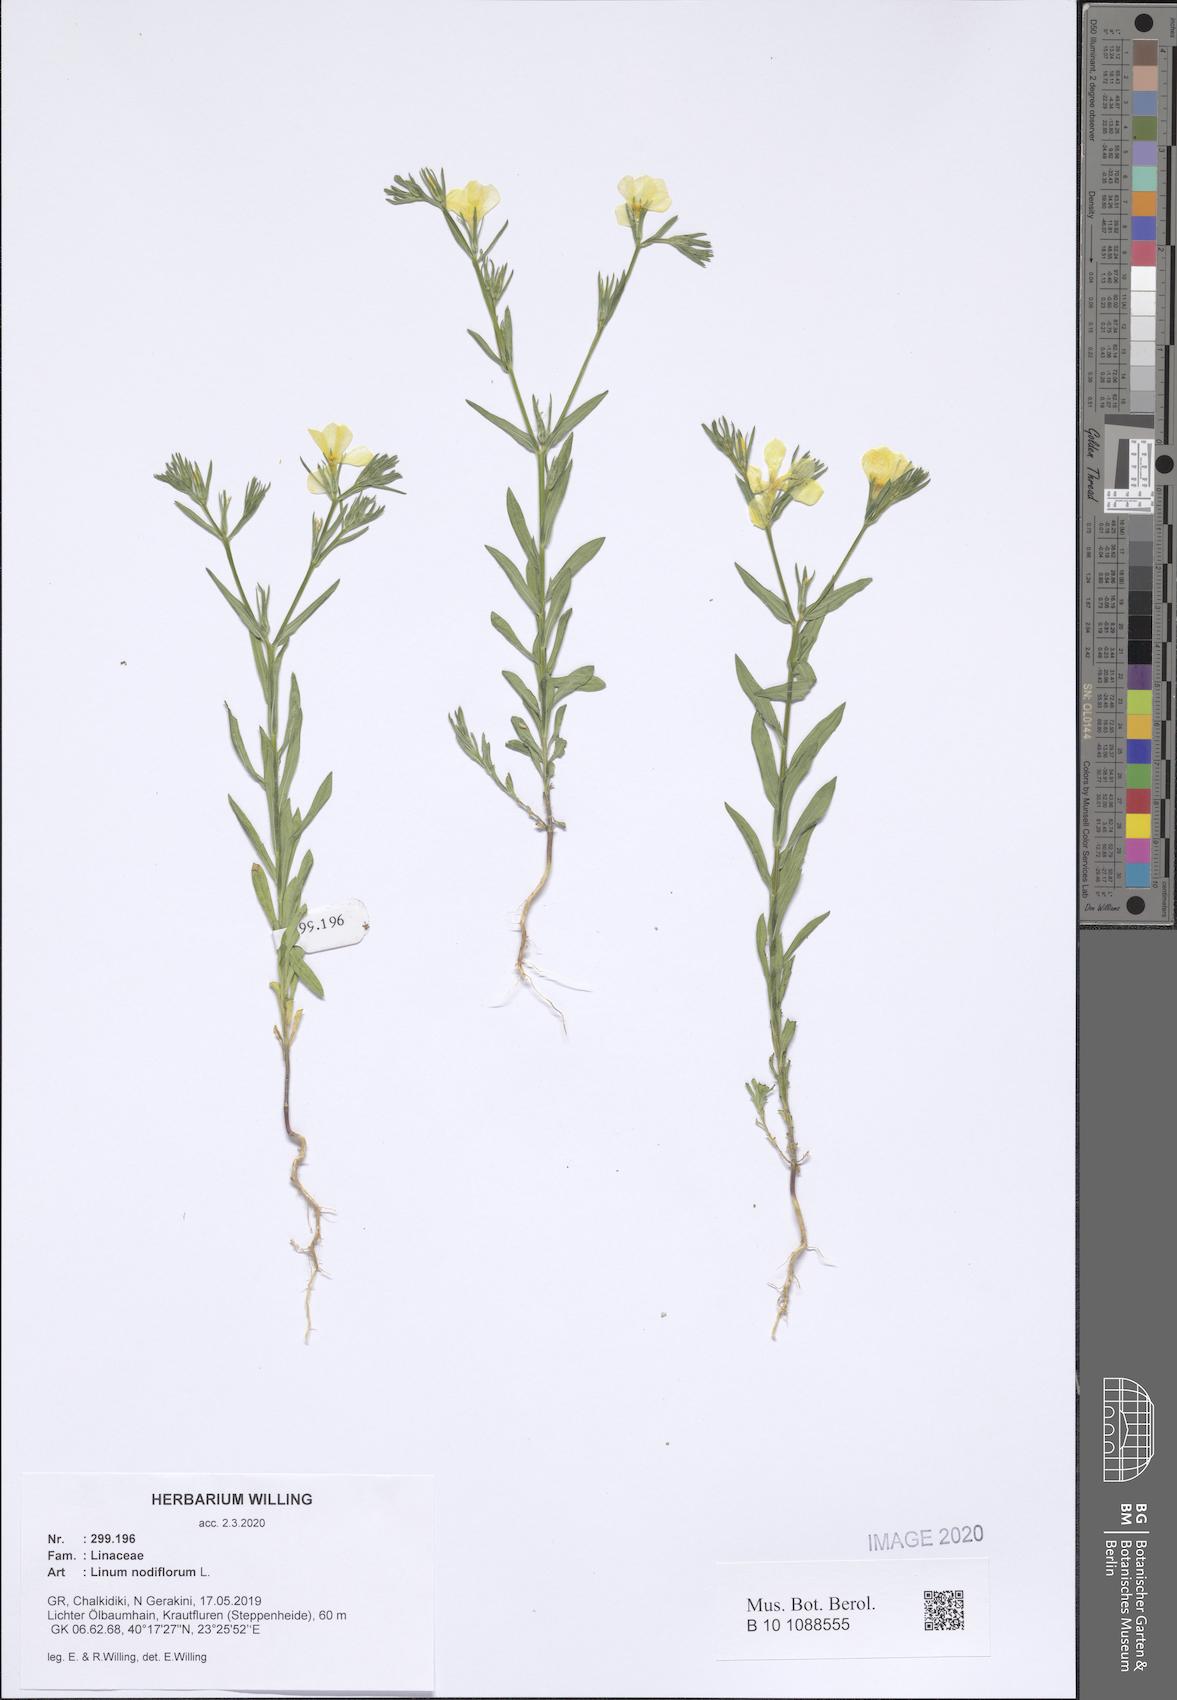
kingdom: Plantae
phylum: Tracheophyta
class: Magnoliopsida
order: Malpighiales
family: Linaceae
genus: Linum
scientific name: Linum nodiflorum
